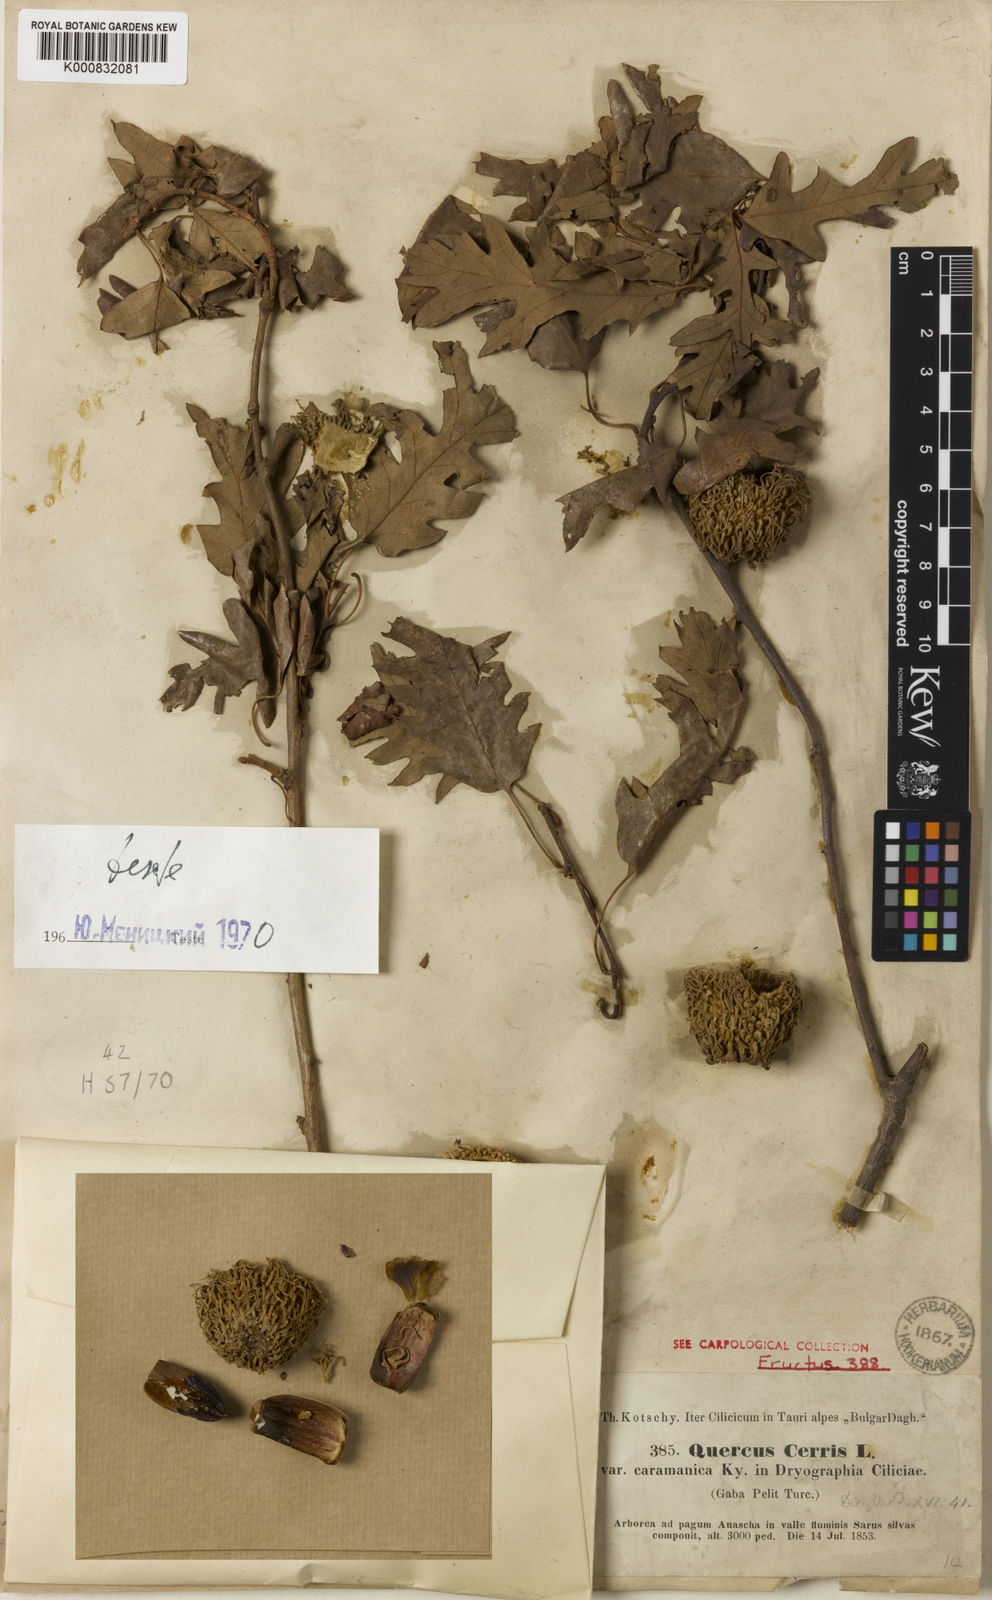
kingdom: Plantae
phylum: Tracheophyta
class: Magnoliopsida
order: Fagales
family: Fagaceae
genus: Quercus
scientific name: Quercus cerris
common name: Turkey oak
